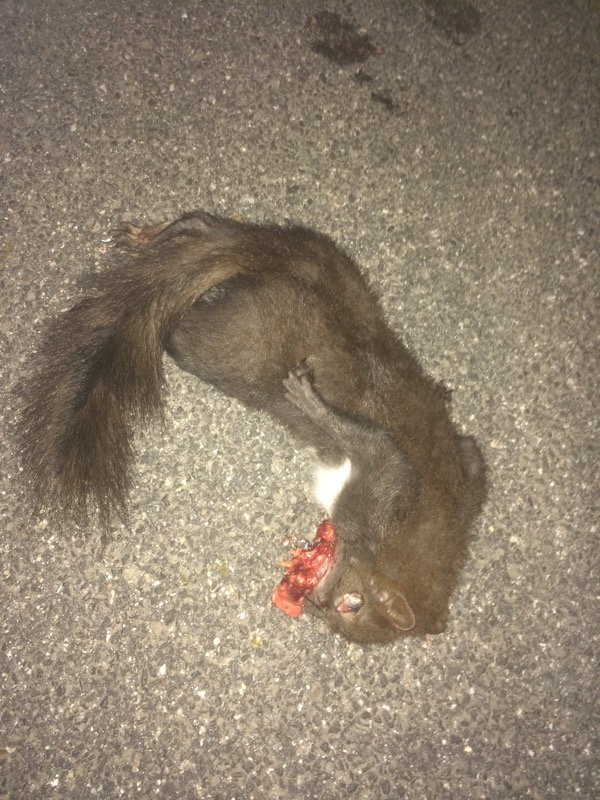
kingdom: Animalia
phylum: Chordata
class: Mammalia
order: Rodentia
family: Sciuridae
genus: Sciurus
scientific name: Sciurus vulgaris
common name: Eurasian red squirrel
